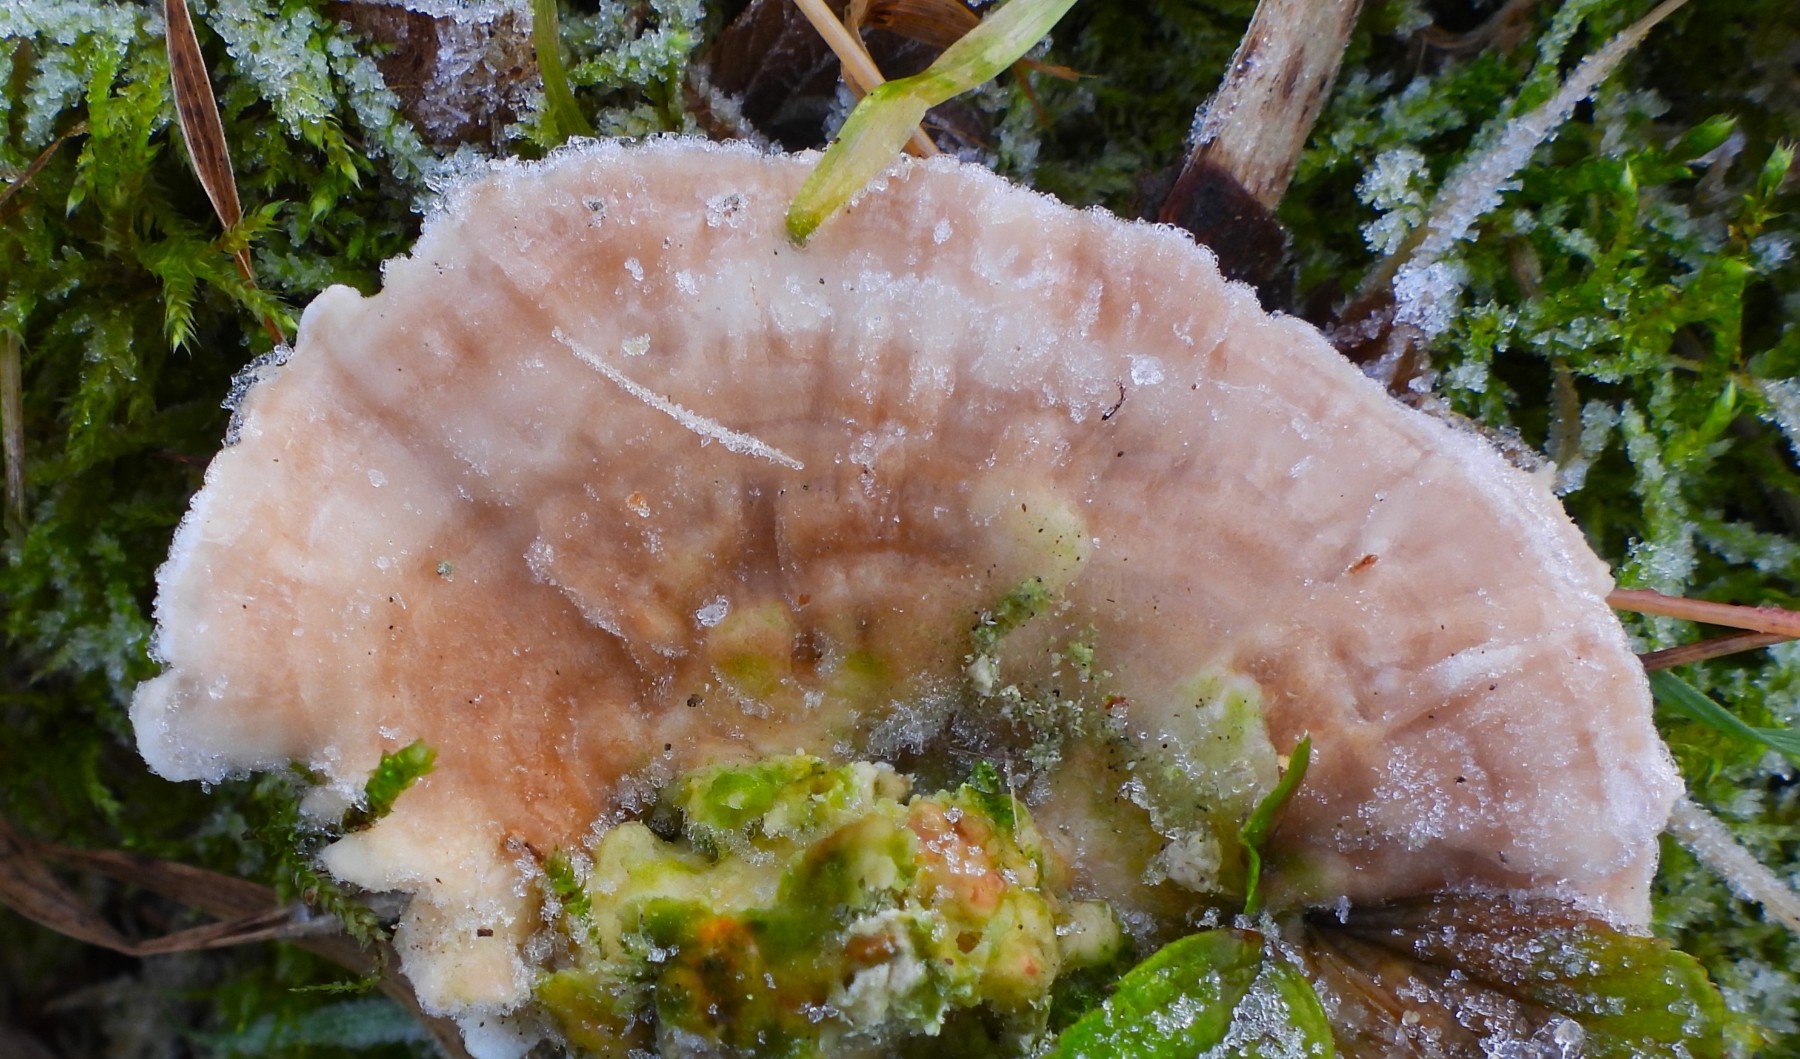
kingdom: Fungi
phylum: Basidiomycota
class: Agaricomycetes
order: Polyporales
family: Polyporaceae
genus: Lenzites
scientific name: Lenzites betulinus
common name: birke-læderporesvamp
